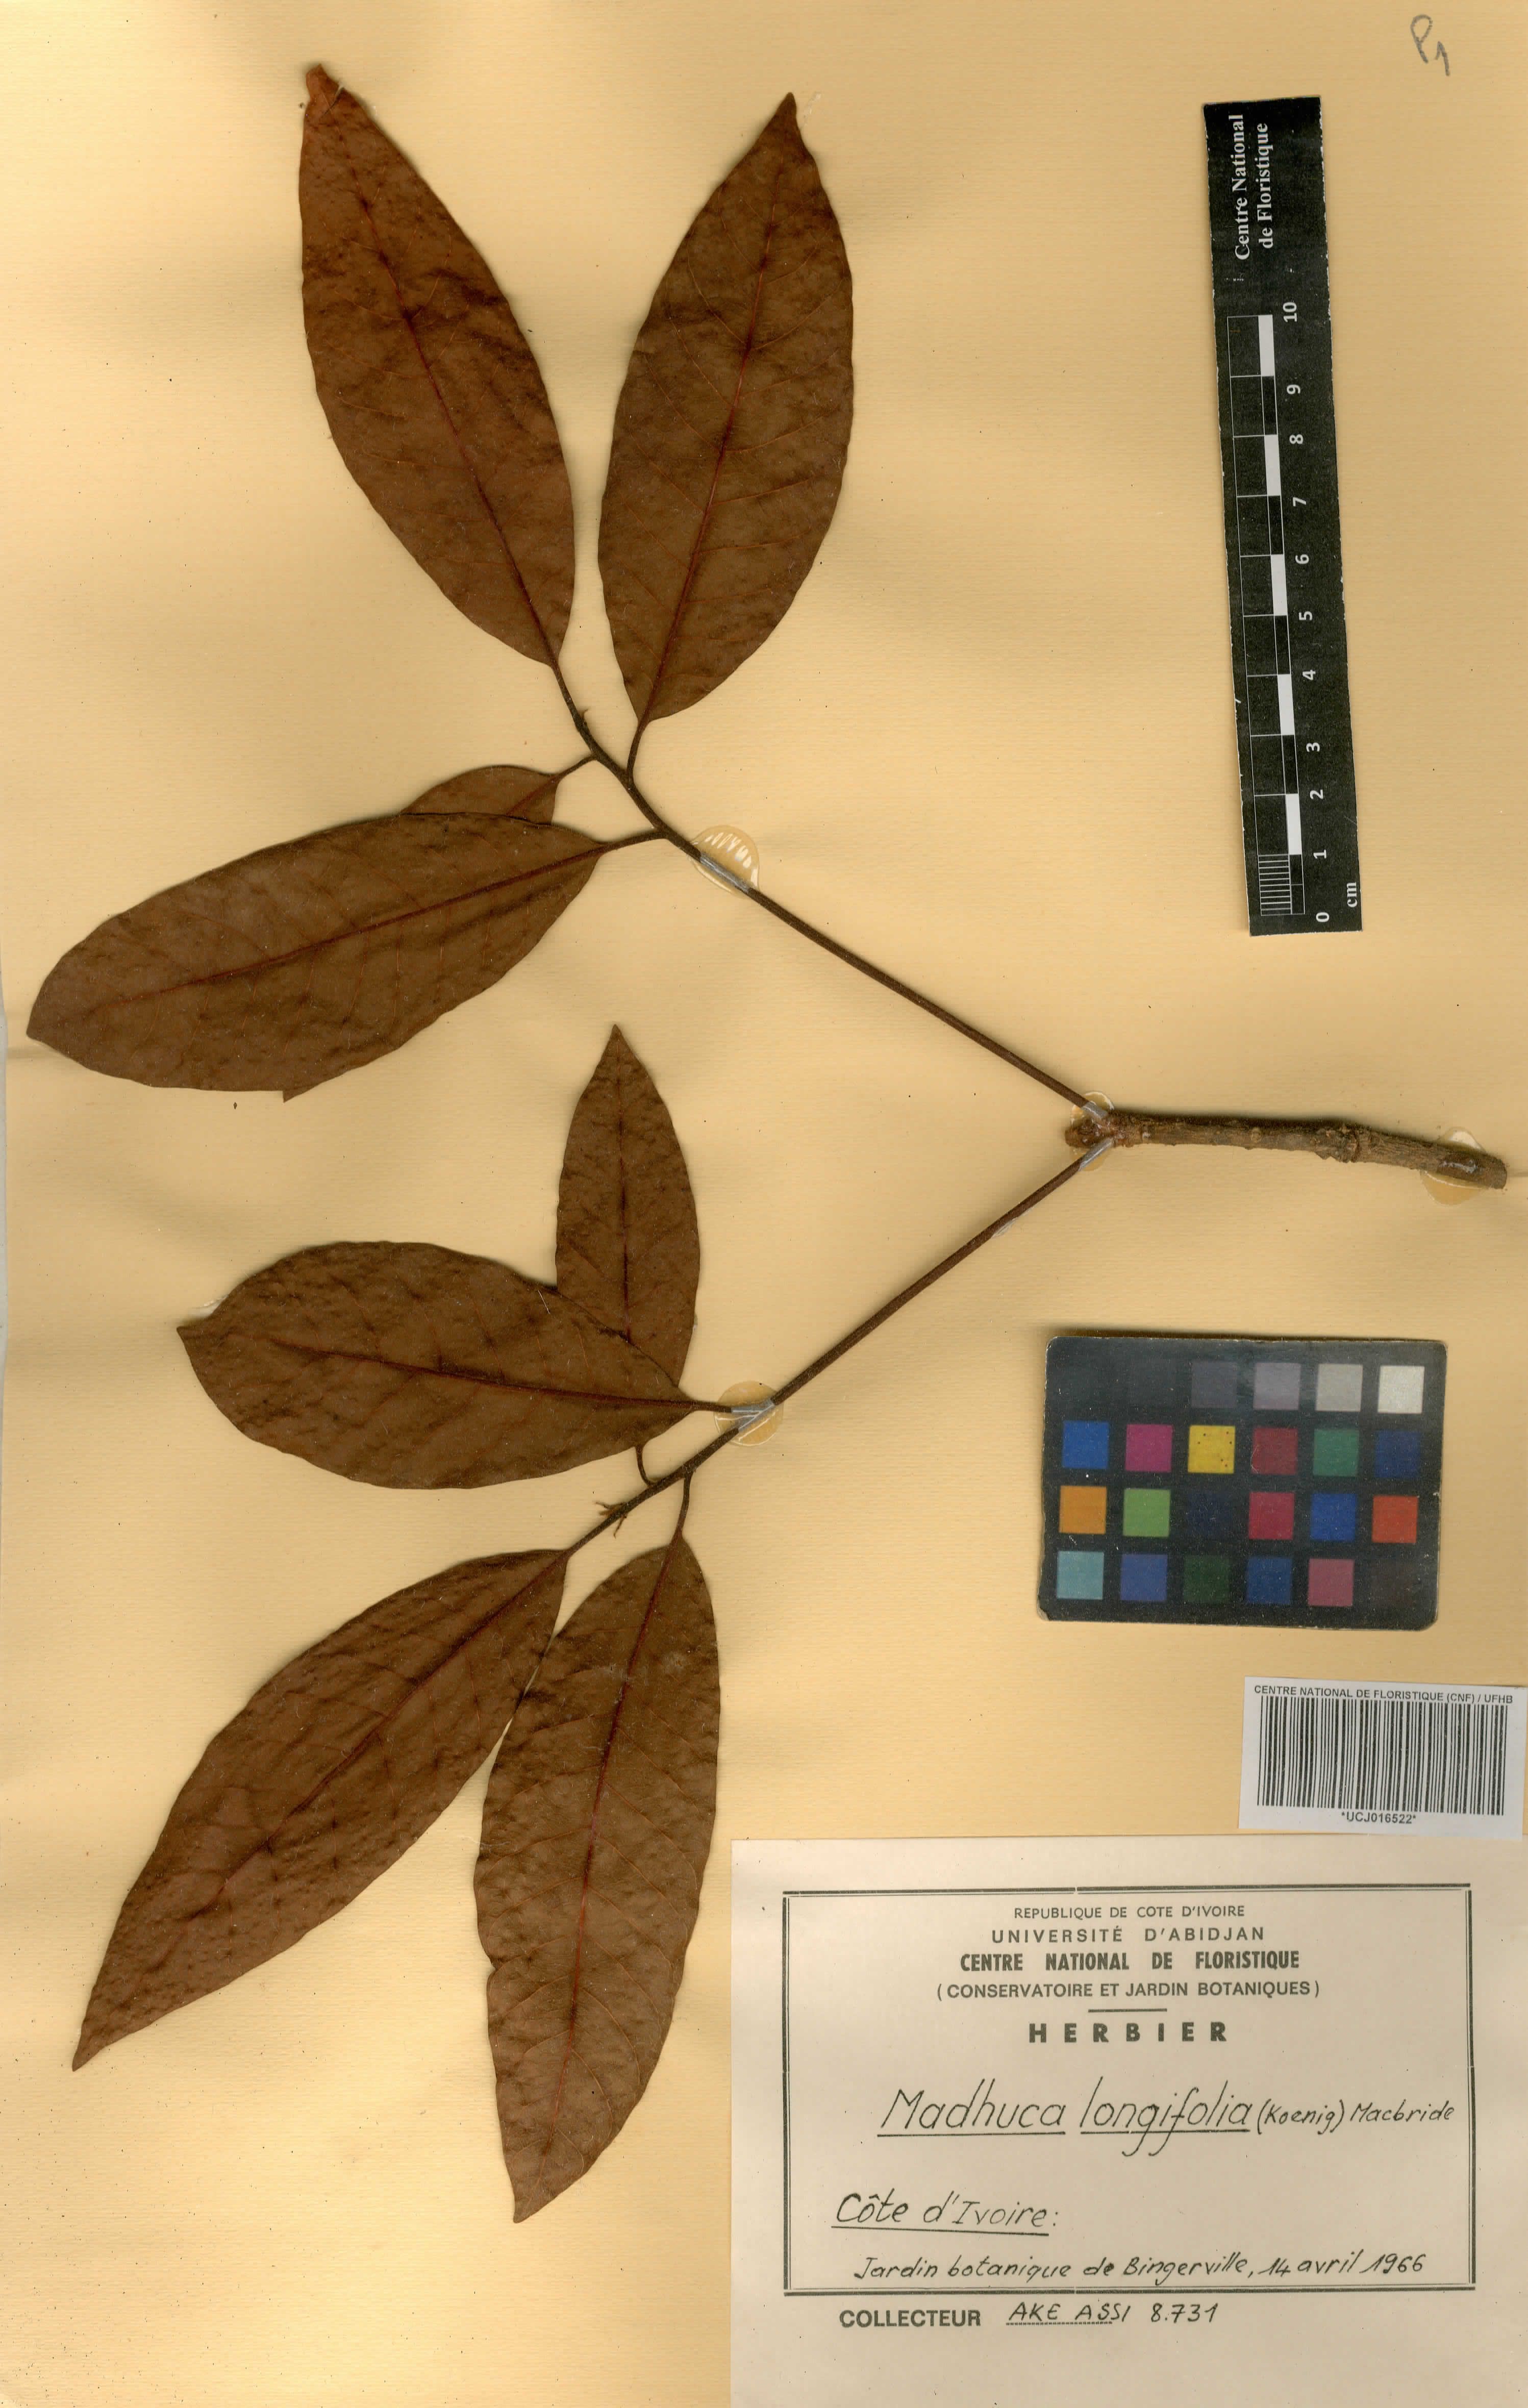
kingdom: Plantae
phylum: Tracheophyta
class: Magnoliopsida
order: Ericales
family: Sapotaceae
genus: Madhuca
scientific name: Madhuca longifolia
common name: Mowra-buttertree
